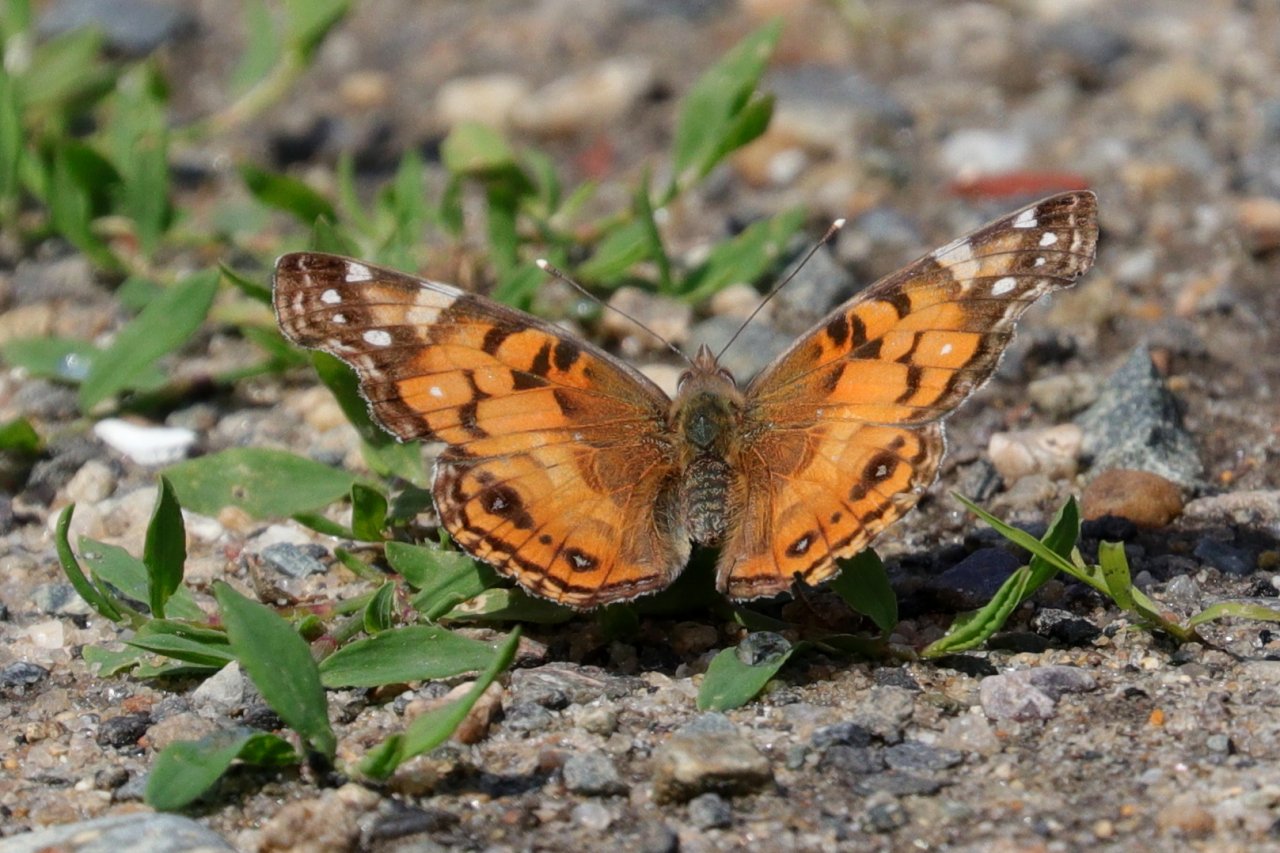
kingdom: Animalia
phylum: Arthropoda
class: Insecta
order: Lepidoptera
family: Nymphalidae
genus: Vanessa
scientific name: Vanessa virginiensis
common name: American Lady
